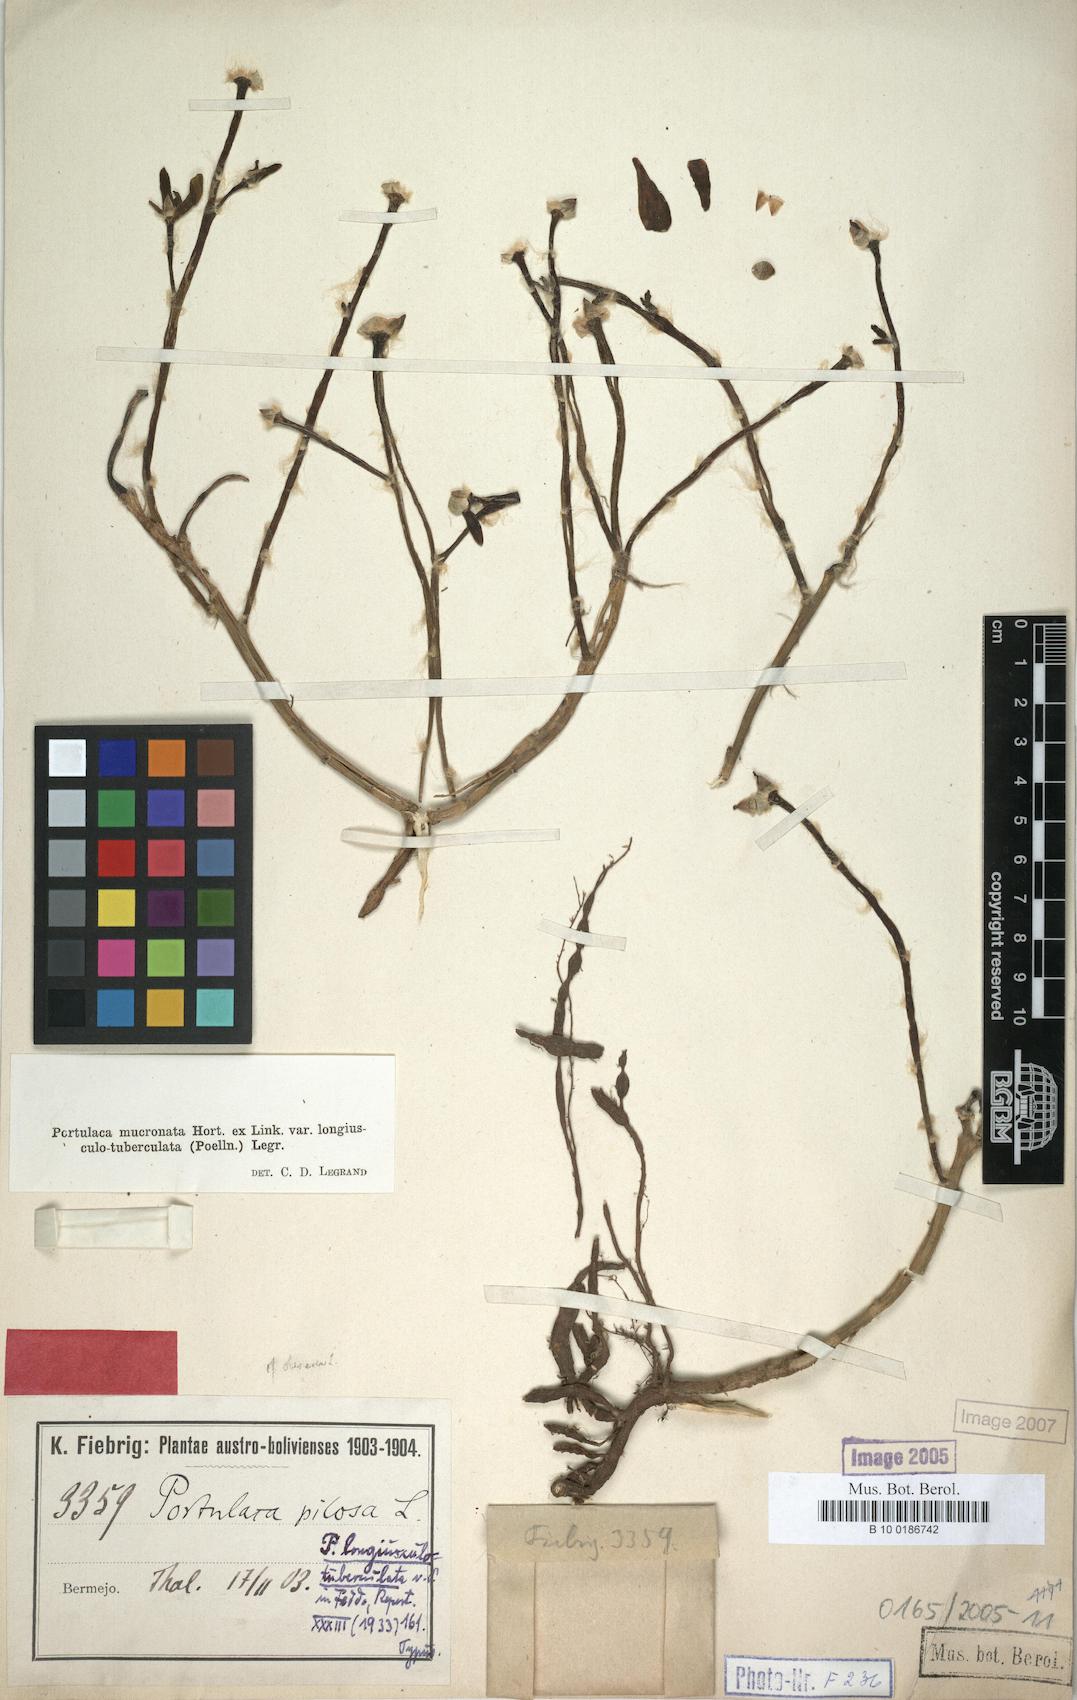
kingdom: Plantae
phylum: Tracheophyta
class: Magnoliopsida
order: Caryophyllales
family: Portulacaceae
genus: Portulaca
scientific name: Portulaca mucronata
